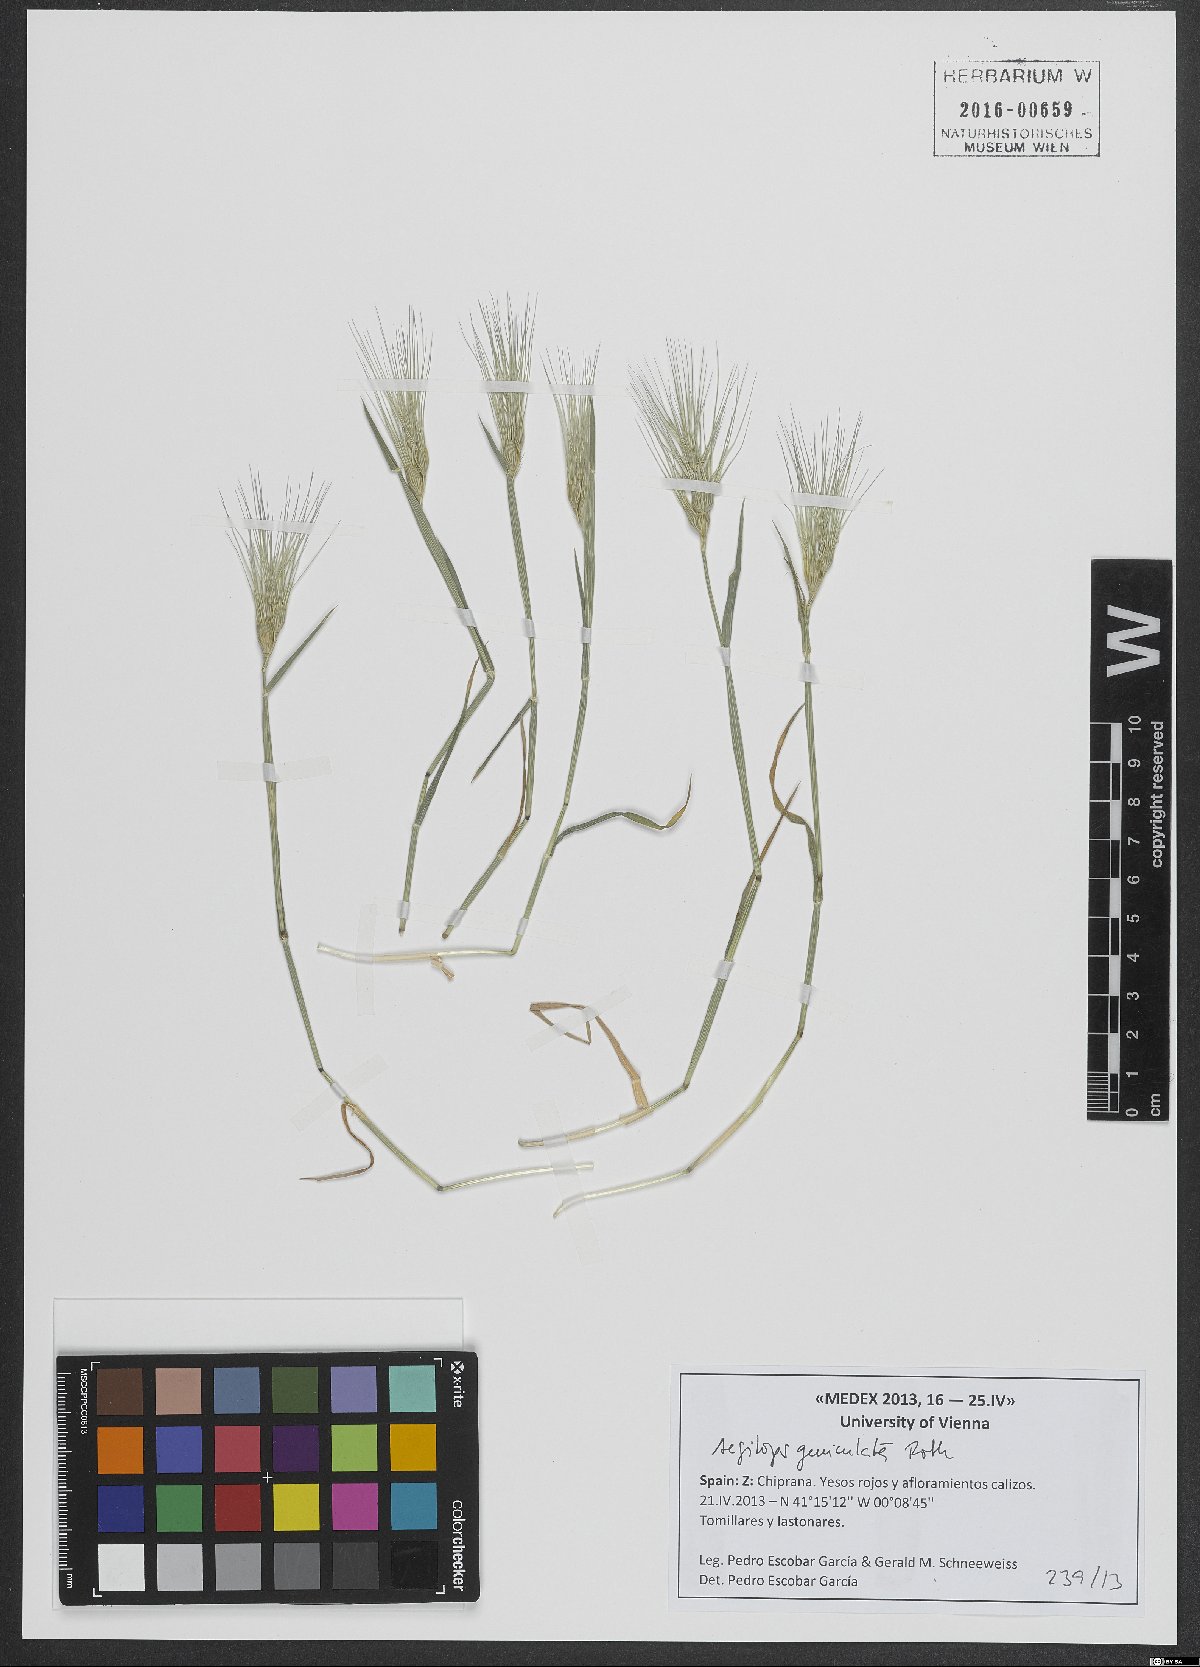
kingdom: Plantae
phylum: Tracheophyta
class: Liliopsida
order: Poales
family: Poaceae
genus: Aegilops
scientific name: Aegilops geniculata
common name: Ovate goat grass
